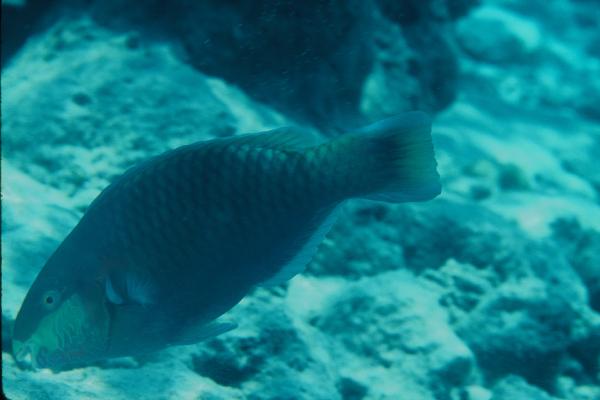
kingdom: Animalia
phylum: Chordata
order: Perciformes
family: Scaridae
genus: Scarus
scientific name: Scarus quoyi
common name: Quoy's parrotfish
